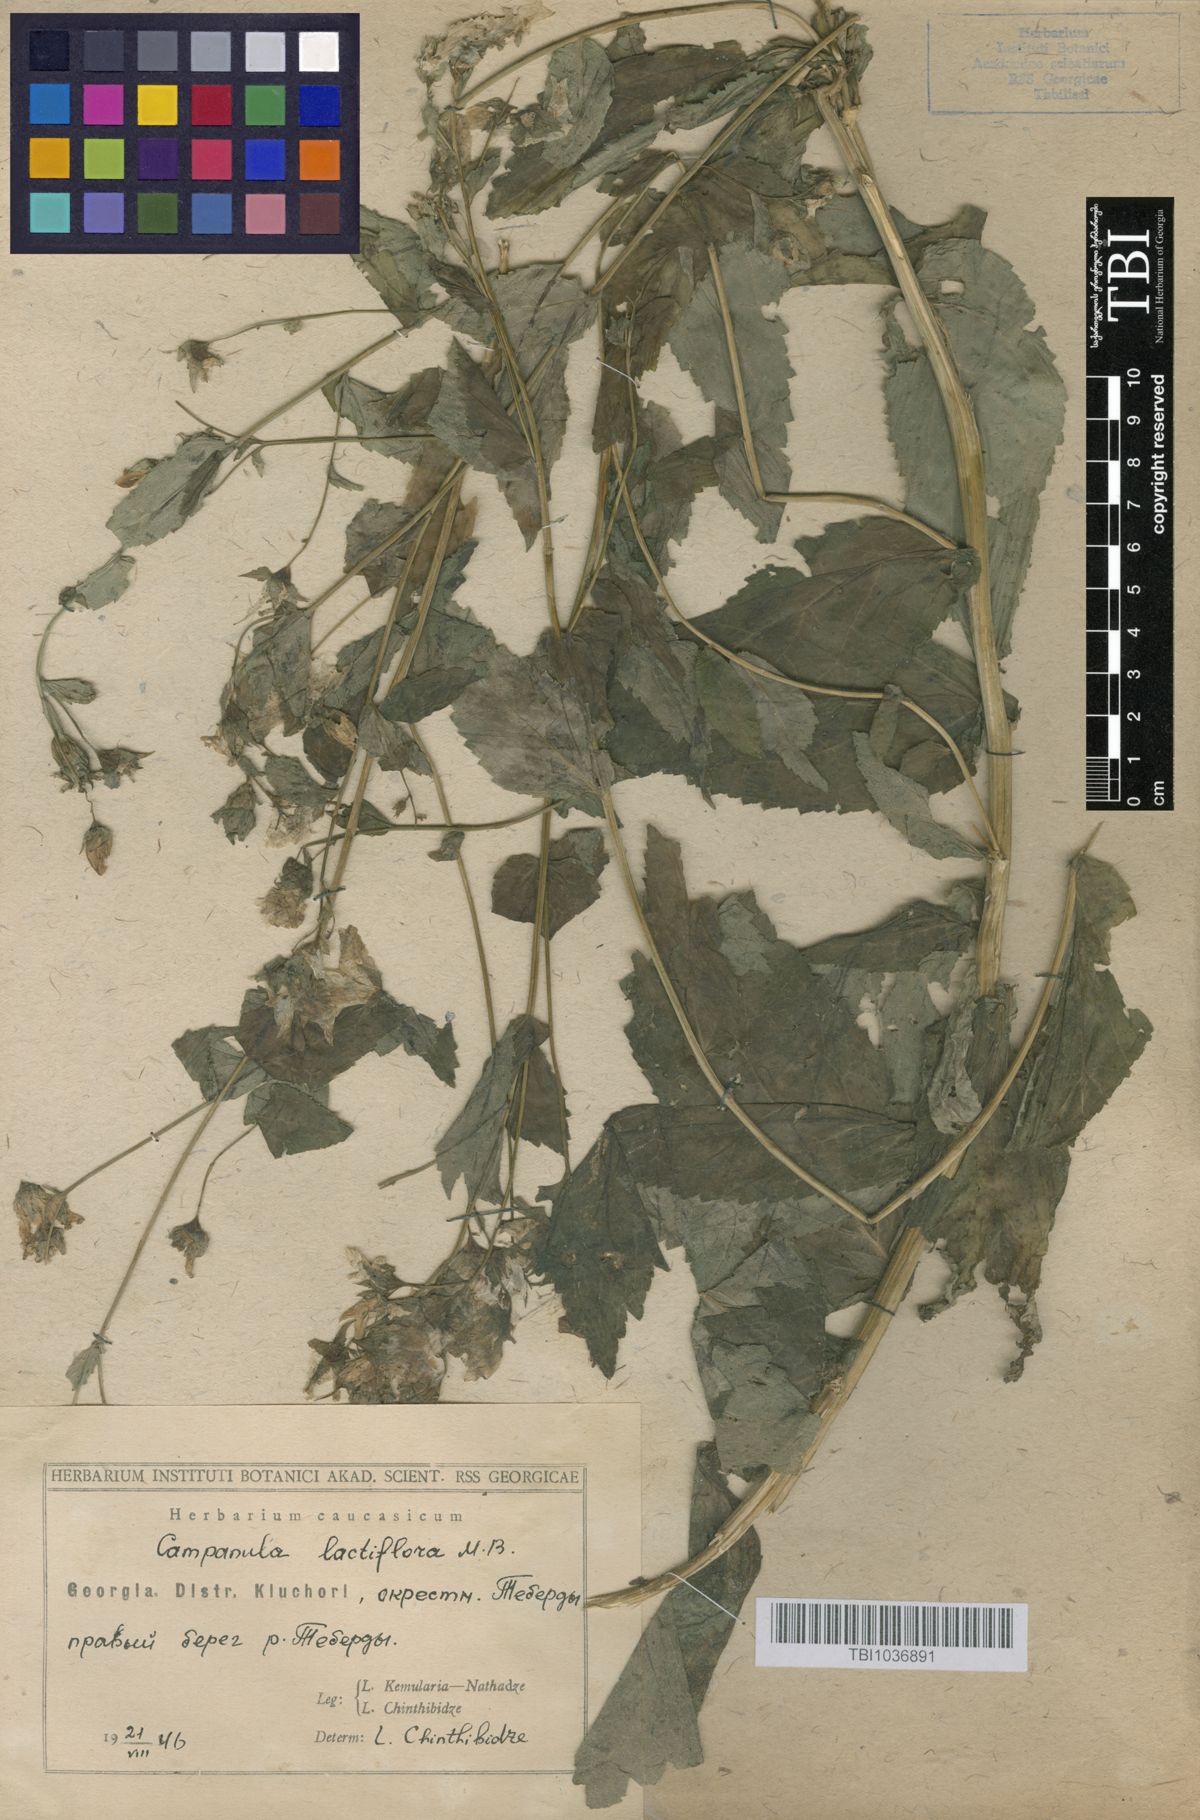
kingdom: Plantae
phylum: Tracheophyta
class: Magnoliopsida
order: Asterales
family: Campanulaceae
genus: Campanula
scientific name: Campanula lactiflora
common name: Milky bellflower
